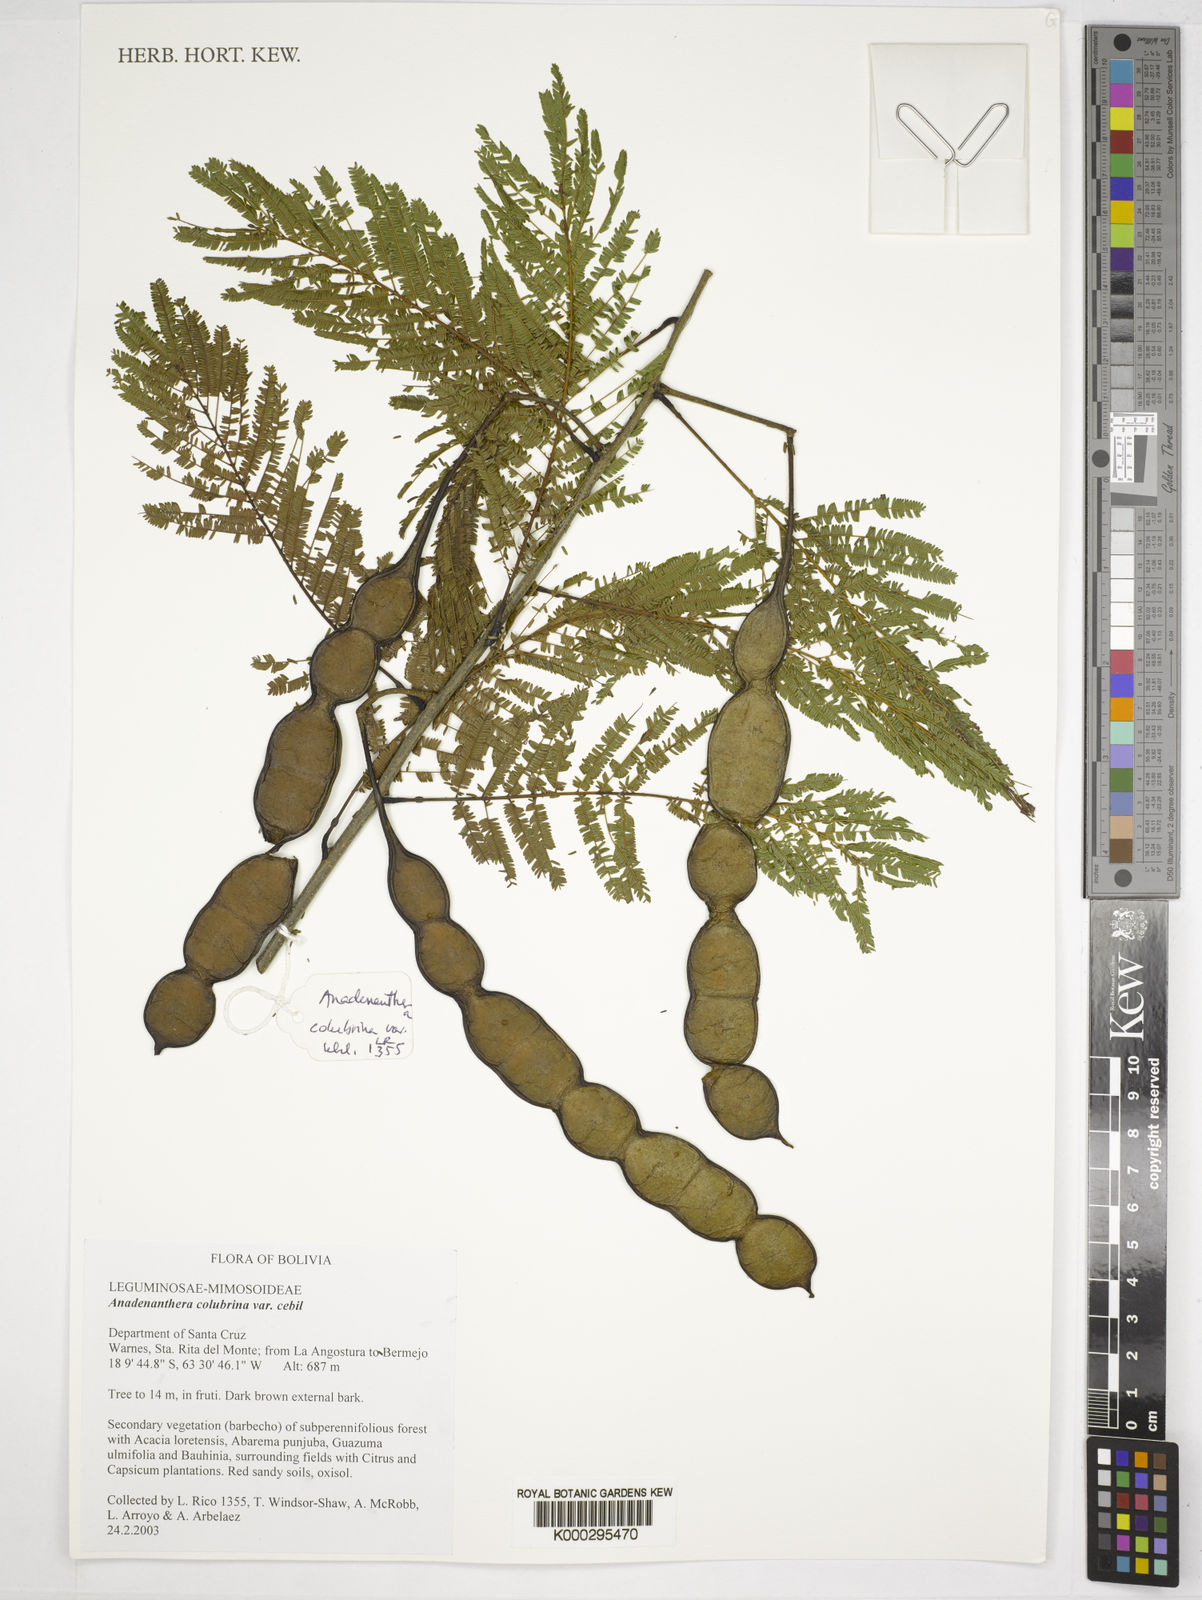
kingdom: Plantae
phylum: Tracheophyta
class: Magnoliopsida
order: Fabales
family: Fabaceae
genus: Anadenanthera
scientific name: Anadenanthera colubrina
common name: Curupay
